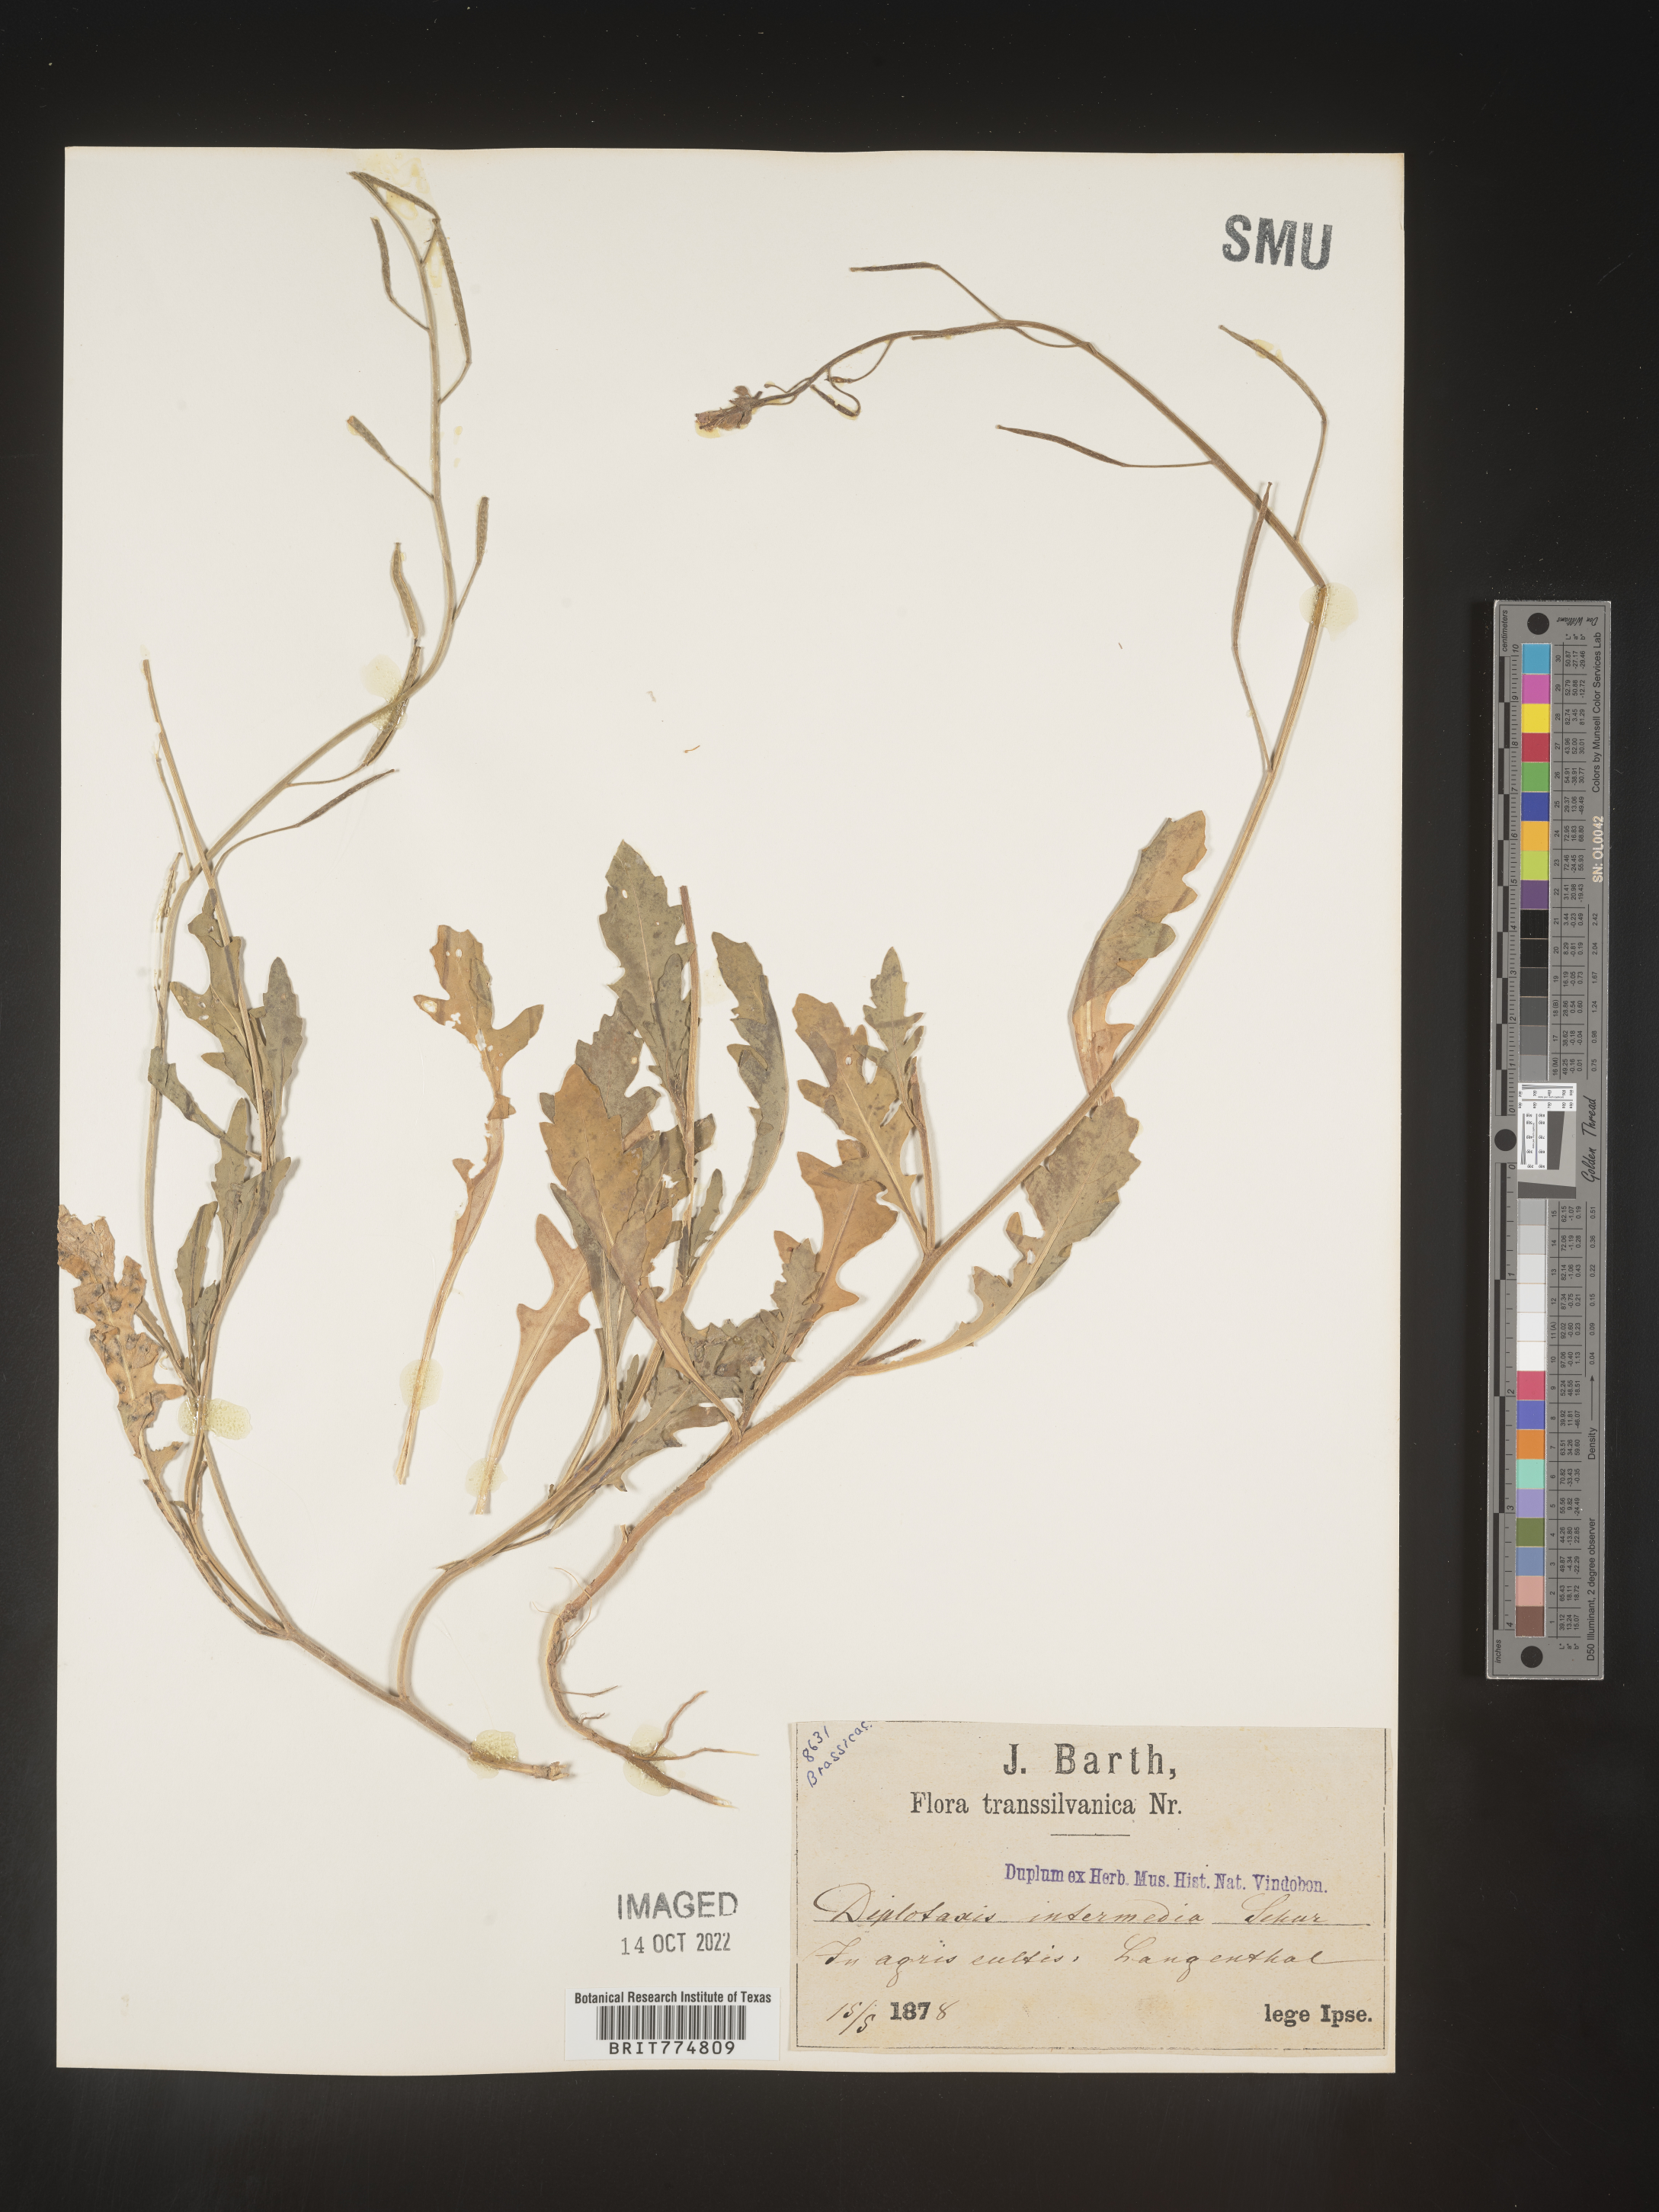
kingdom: Plantae
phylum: Tracheophyta
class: Magnoliopsida
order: Brassicales
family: Brassicaceae
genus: Diplotaxis
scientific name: Diplotaxis
